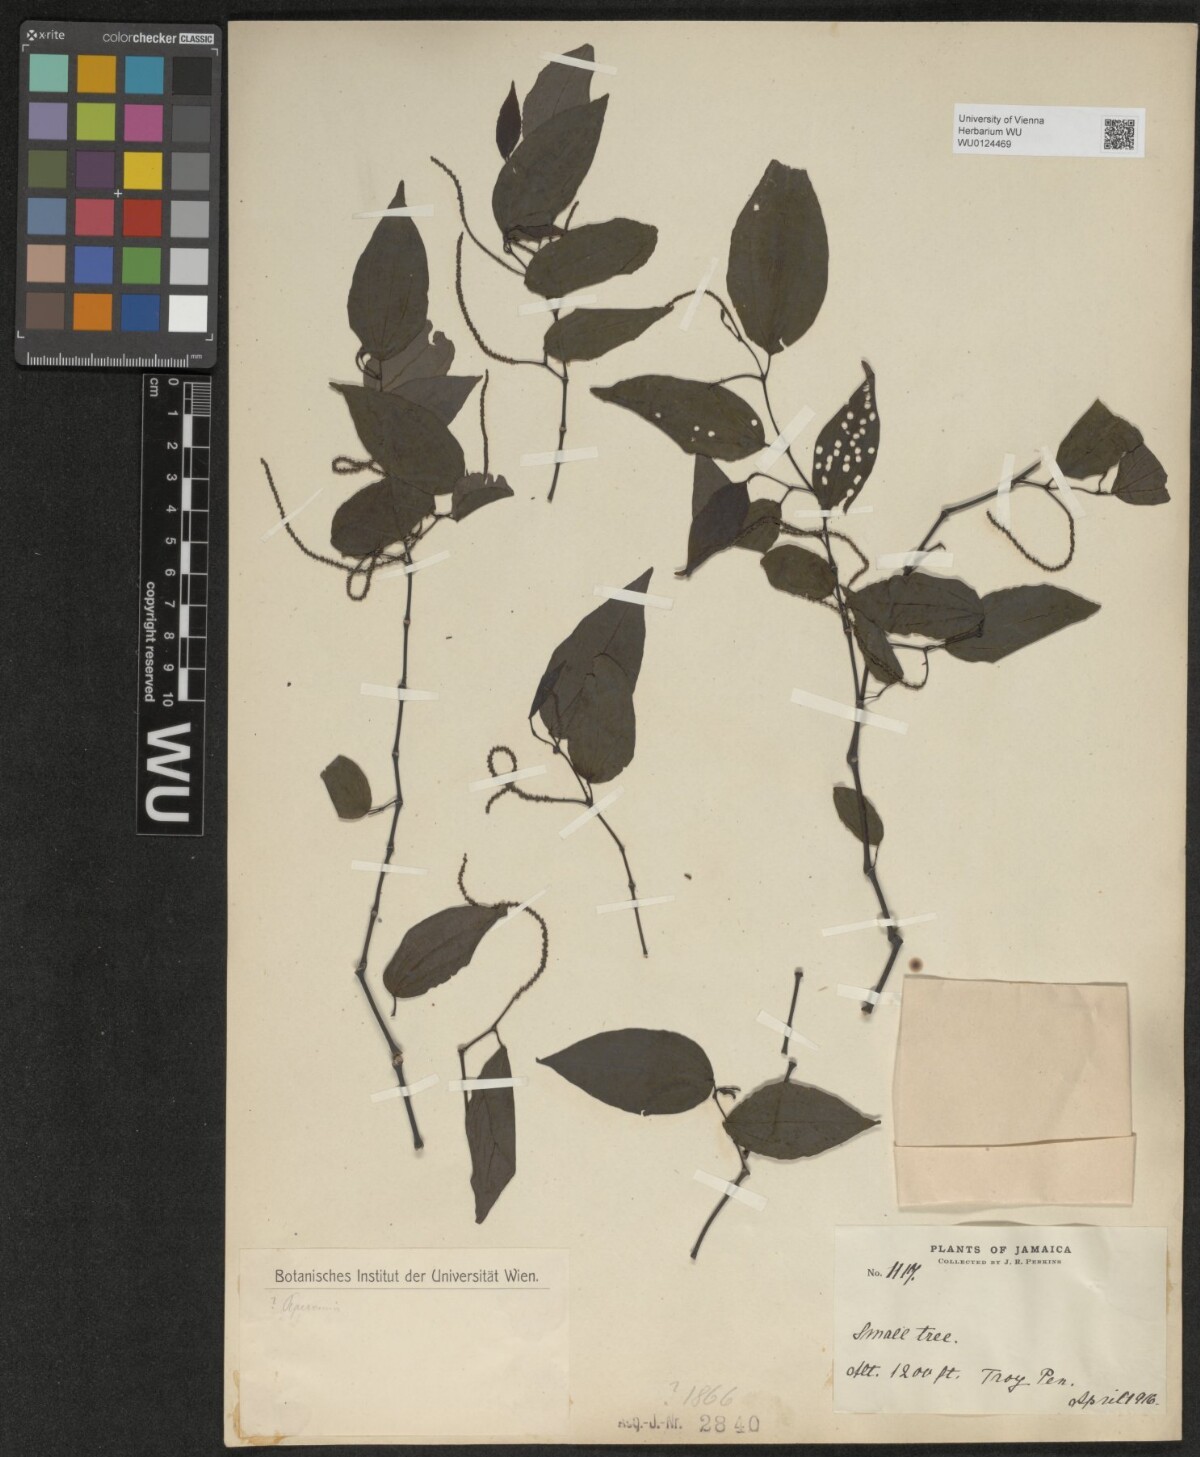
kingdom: Plantae
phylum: Tracheophyta
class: Magnoliopsida
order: Piperales
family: Piperaceae
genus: Peperomia
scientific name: Peperomia
